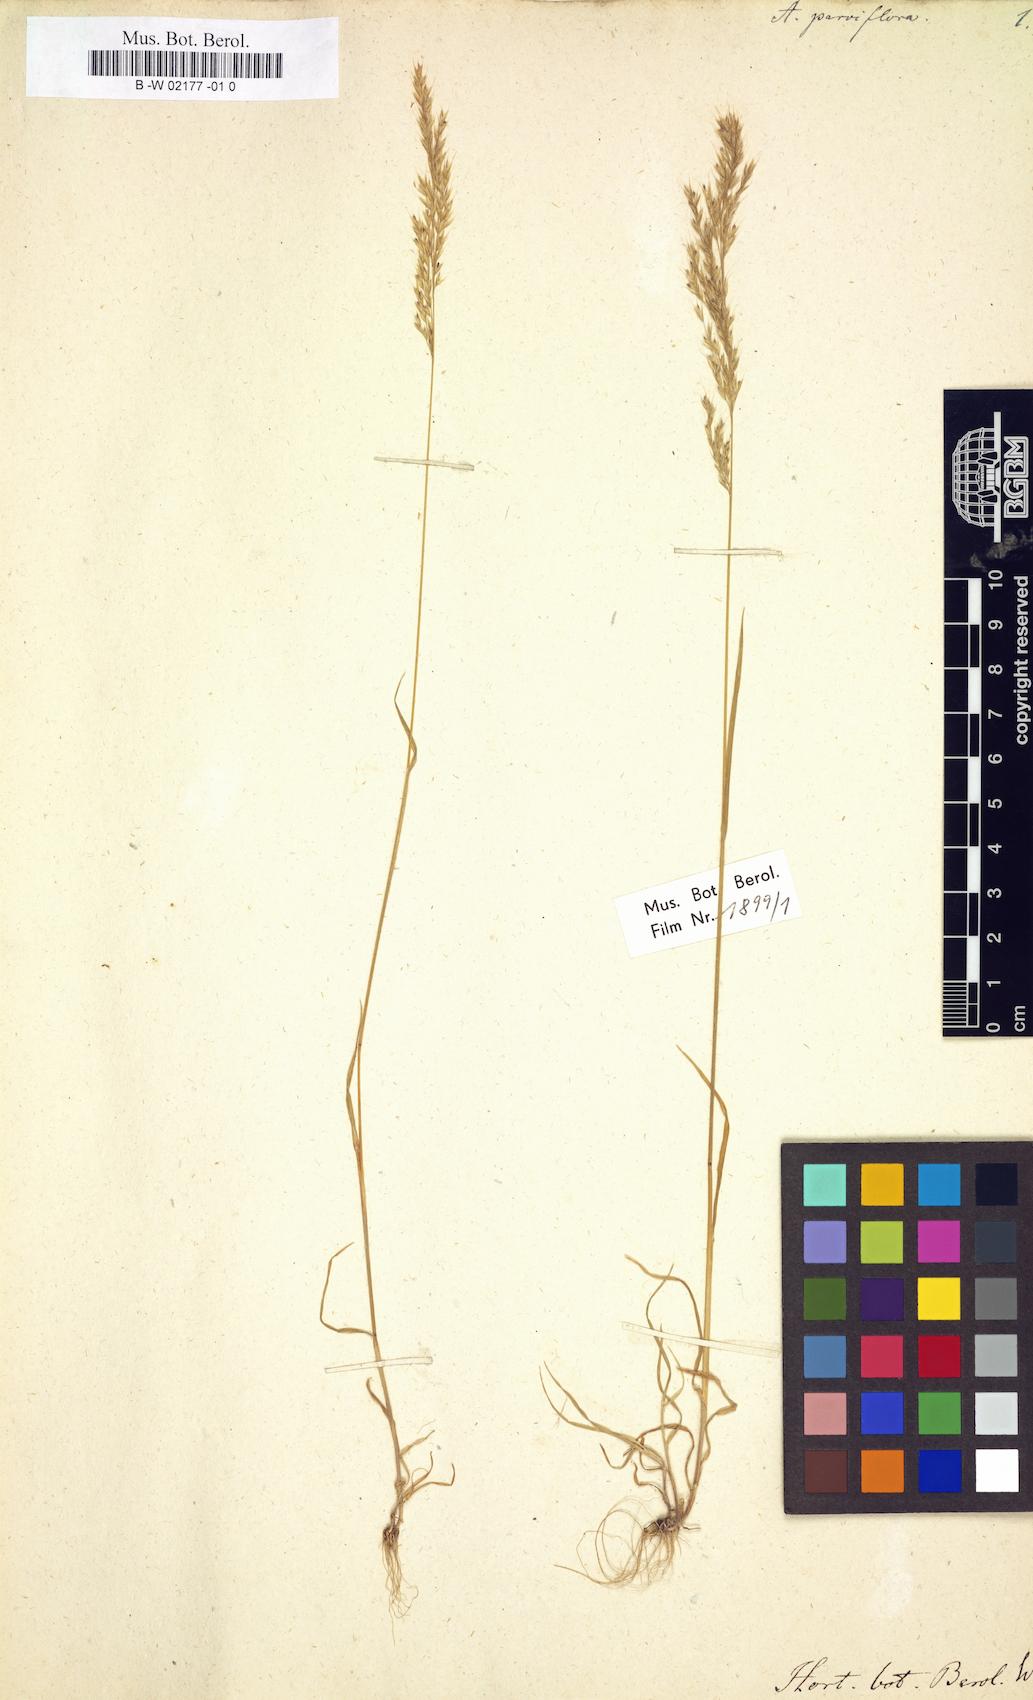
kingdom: Plantae
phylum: Tracheophyta
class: Liliopsida
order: Poales
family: Poaceae
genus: Trisetaria
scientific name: Trisetaria parviflora
